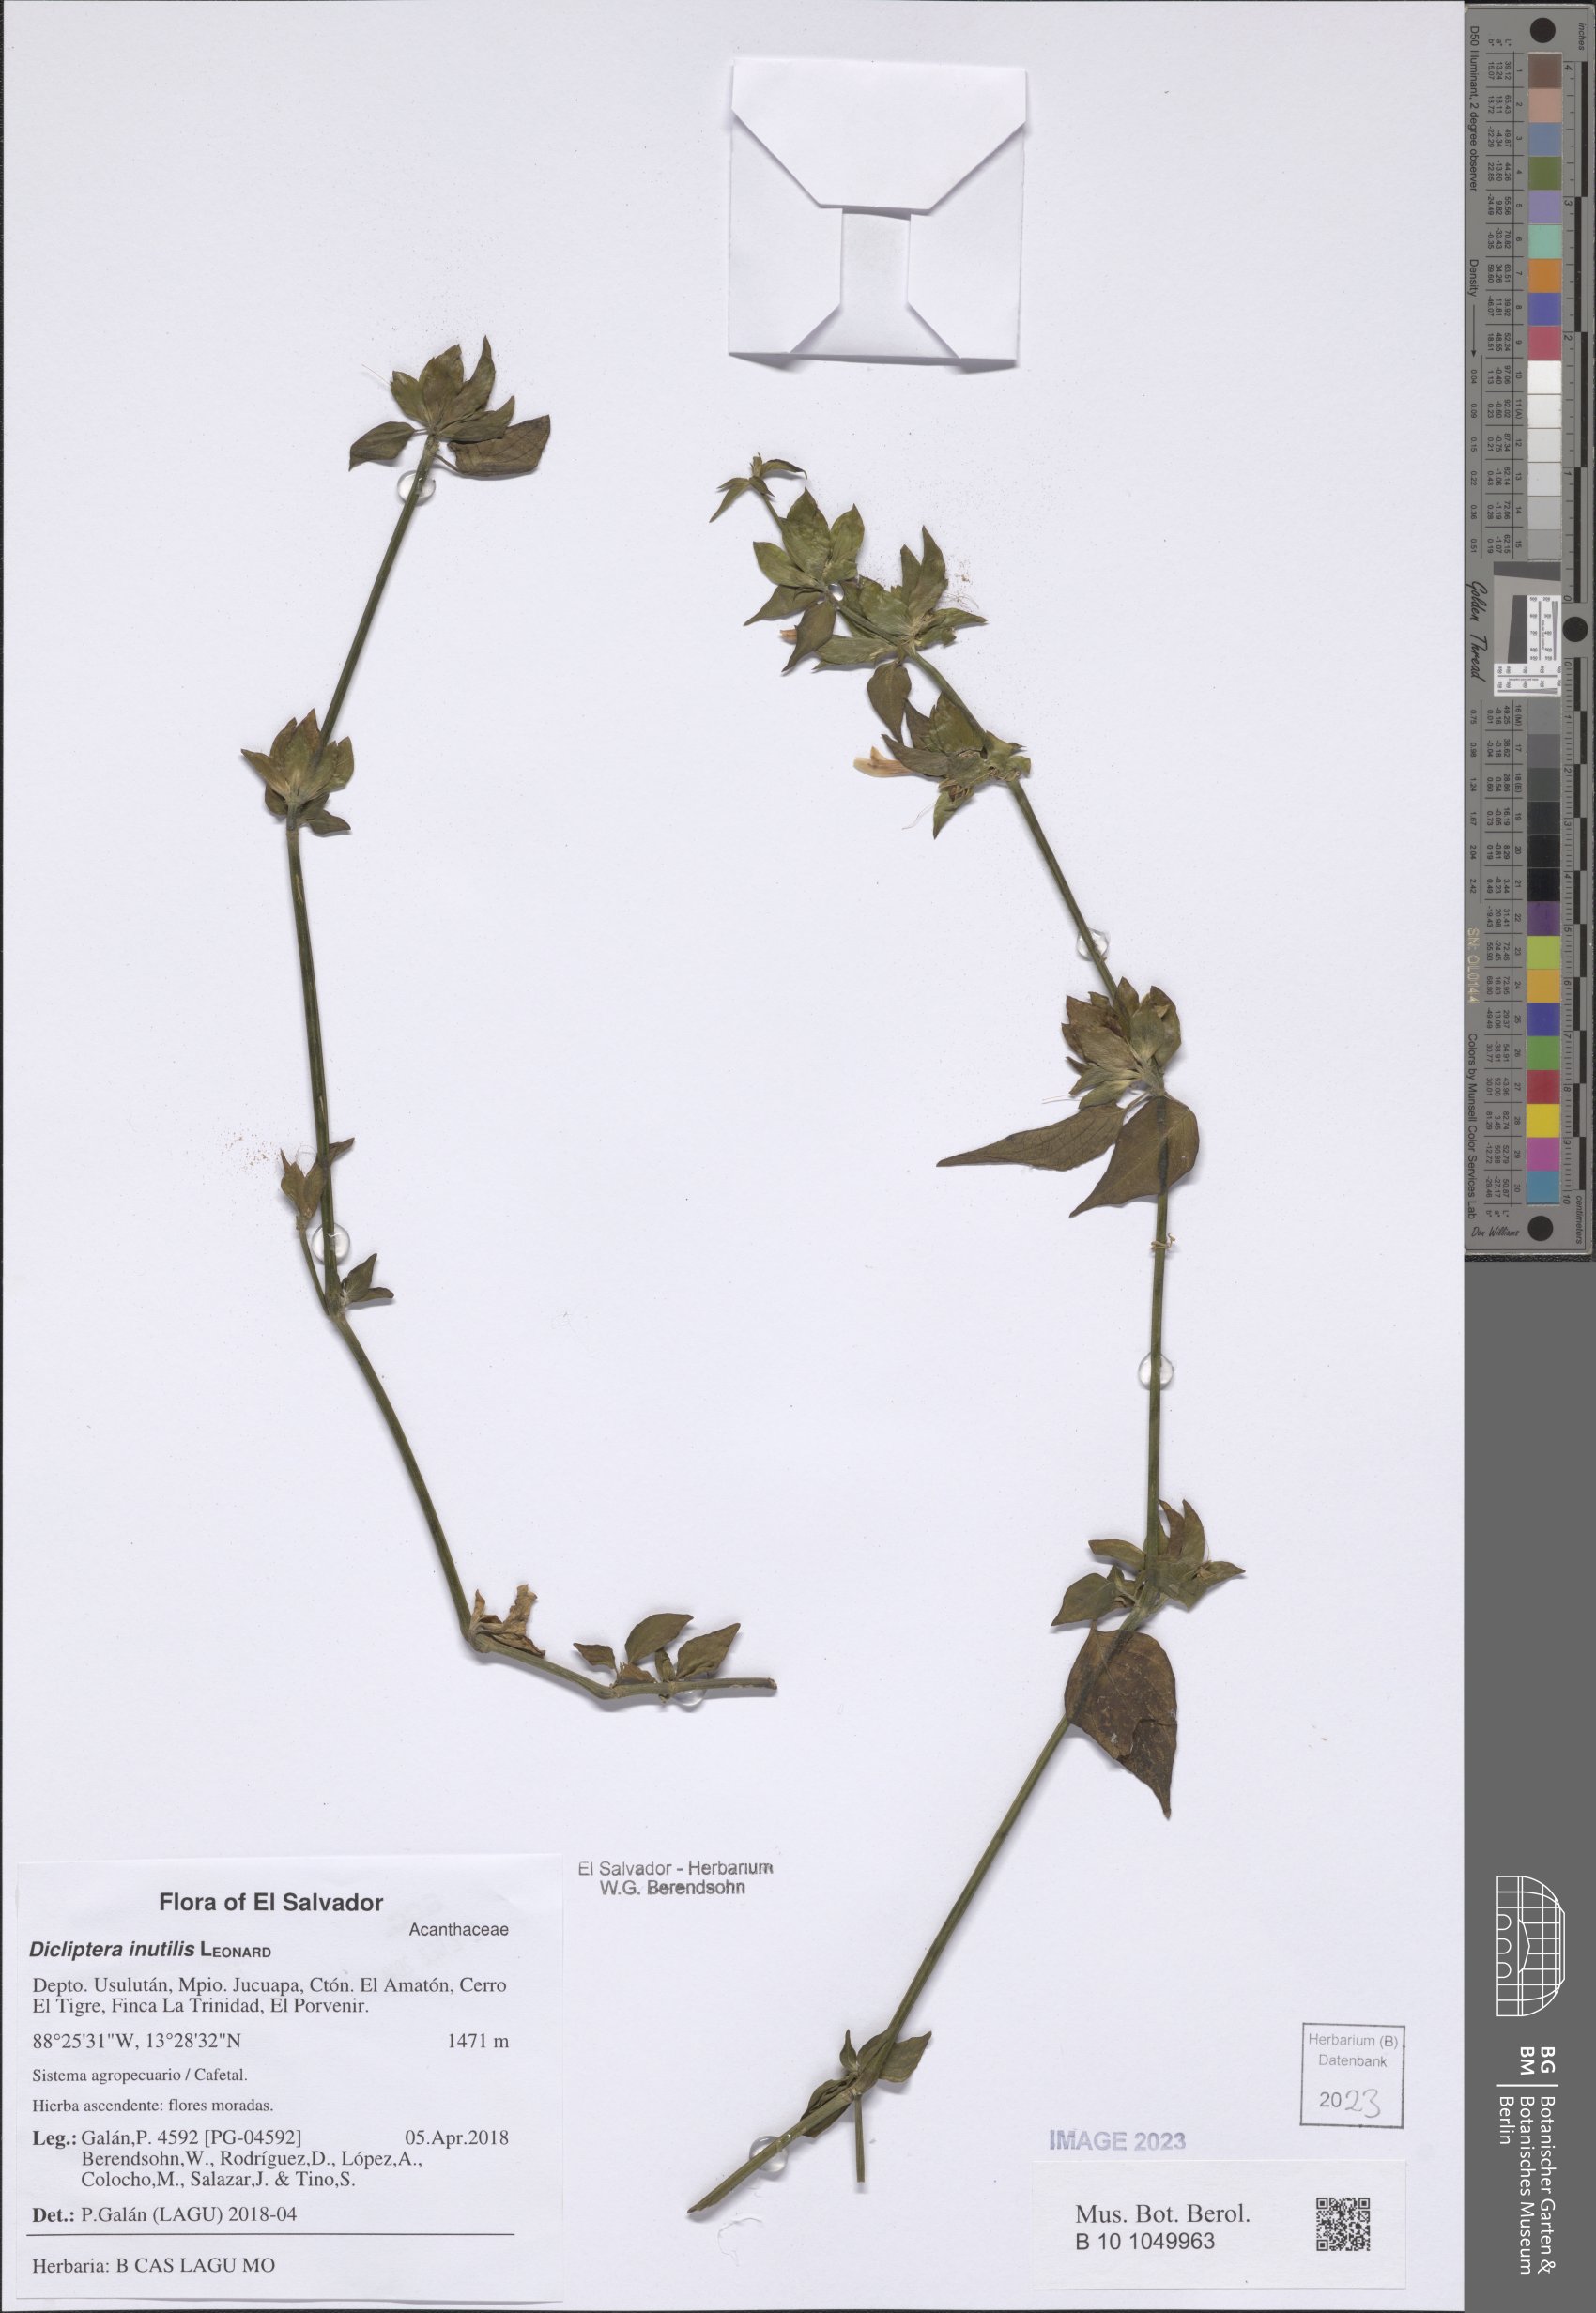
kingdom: Plantae
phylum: Tracheophyta
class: Magnoliopsida
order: Lamiales
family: Acanthaceae
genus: Dicliptera
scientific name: Dicliptera inutilis
